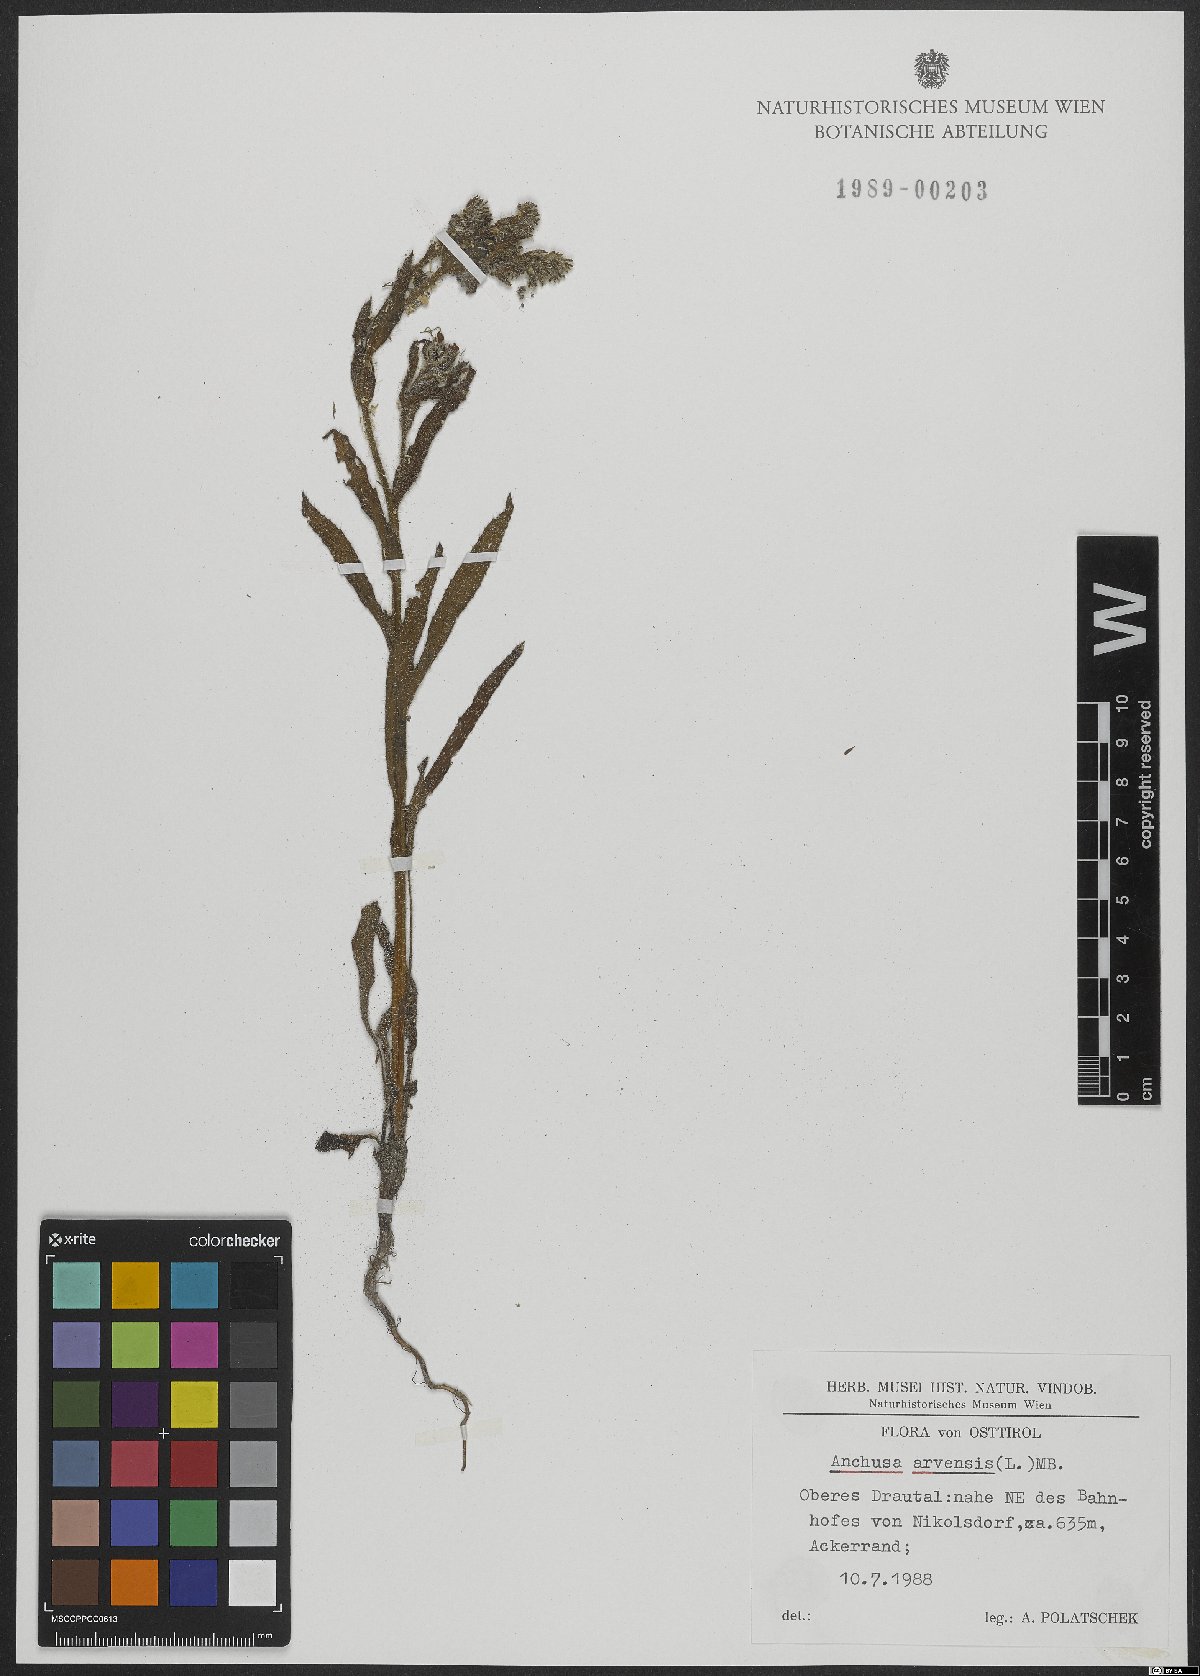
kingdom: Plantae
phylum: Tracheophyta
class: Magnoliopsida
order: Boraginales
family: Boraginaceae
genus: Lycopsis
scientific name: Lycopsis arvensis
